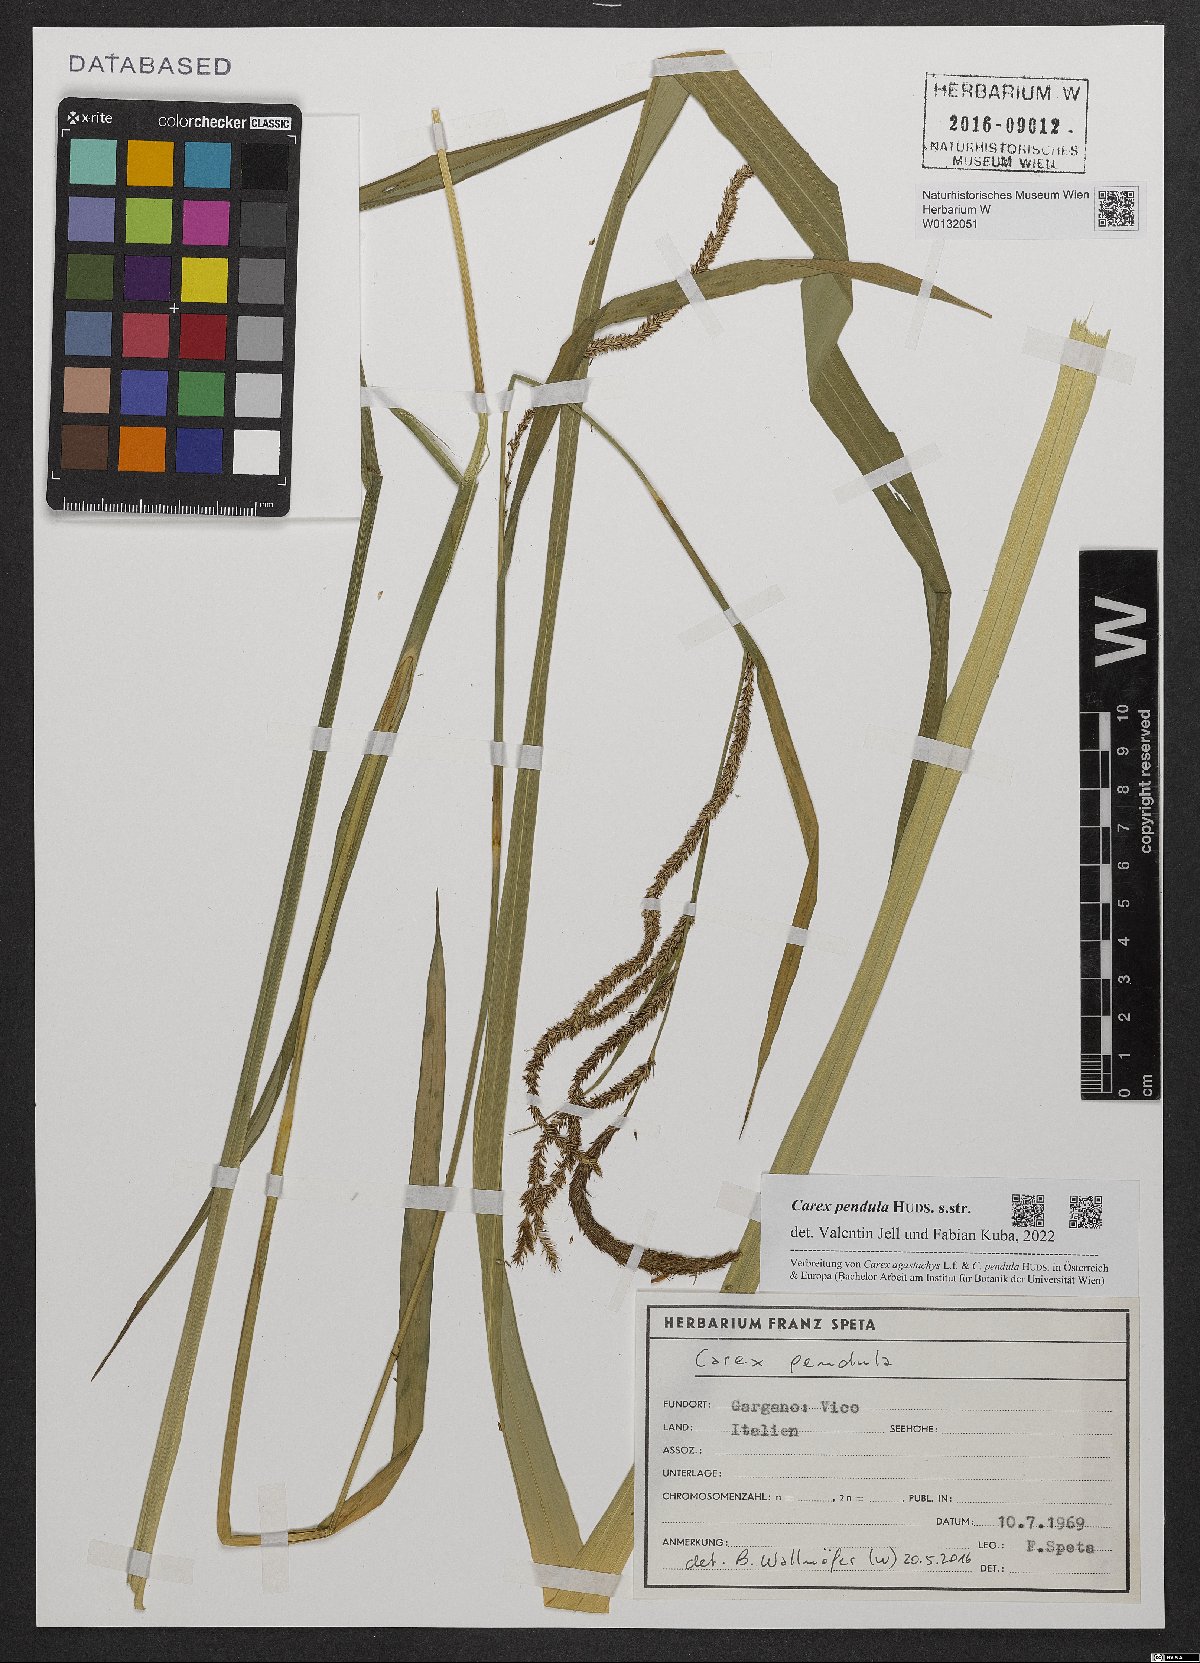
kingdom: Plantae
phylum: Tracheophyta
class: Liliopsida
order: Poales
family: Cyperaceae
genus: Carex
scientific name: Carex pendula
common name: Pendulous sedge
